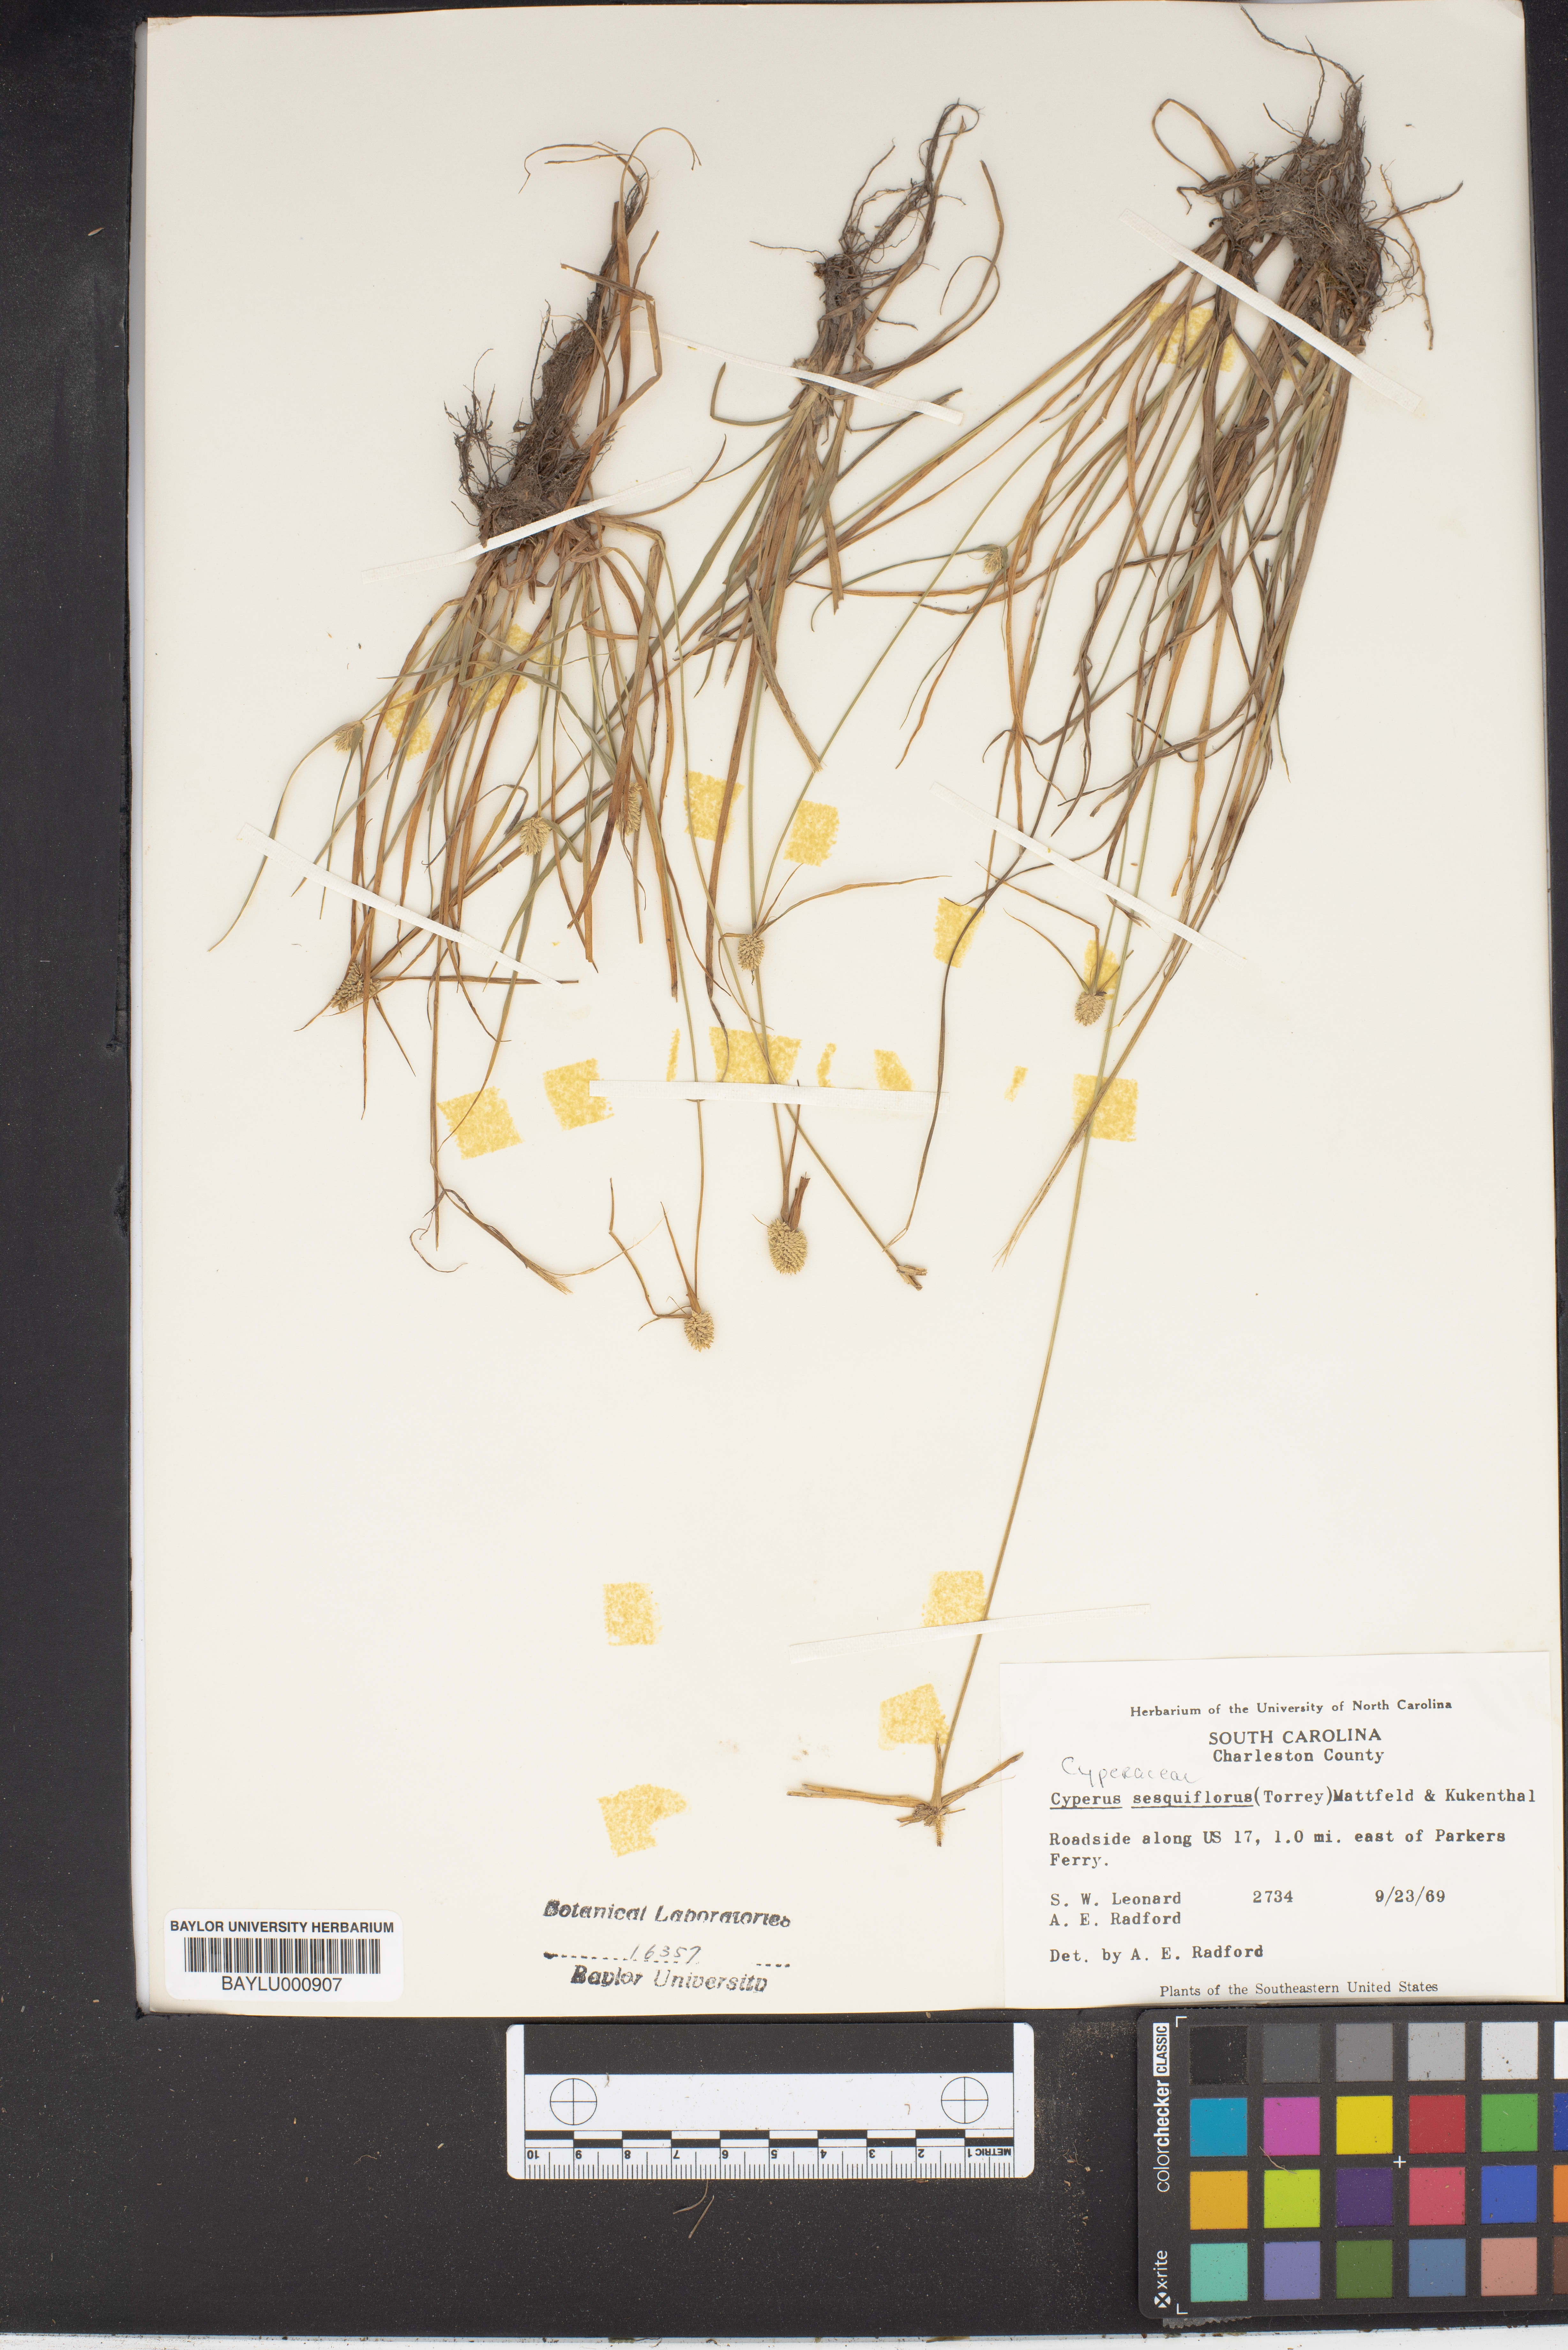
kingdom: Plantae
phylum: Tracheophyta
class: Liliopsida
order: Poales
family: Cyperaceae
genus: Cyperus
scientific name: Cyperus sesquiflorus
